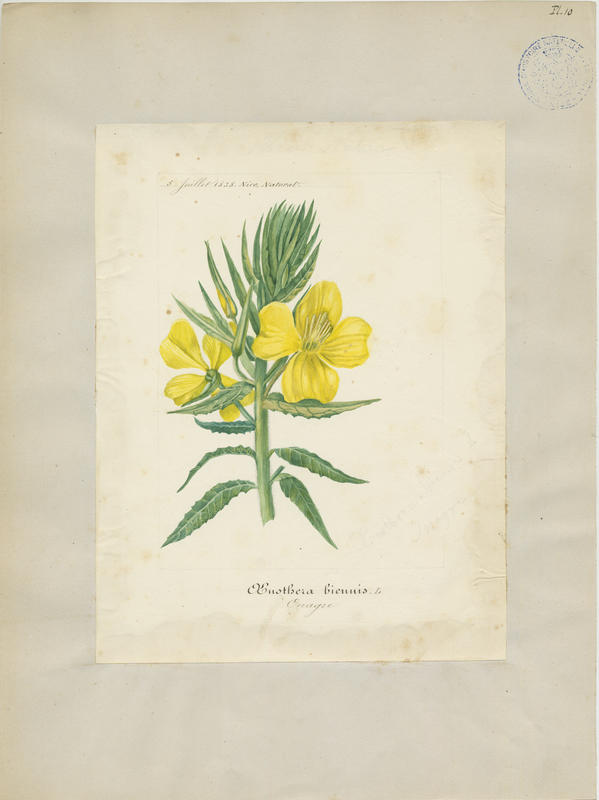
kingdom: Plantae
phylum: Tracheophyta
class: Magnoliopsida
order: Myrtales
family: Onagraceae
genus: Oenothera
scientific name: Oenothera biennis
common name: Common evening-primrose
